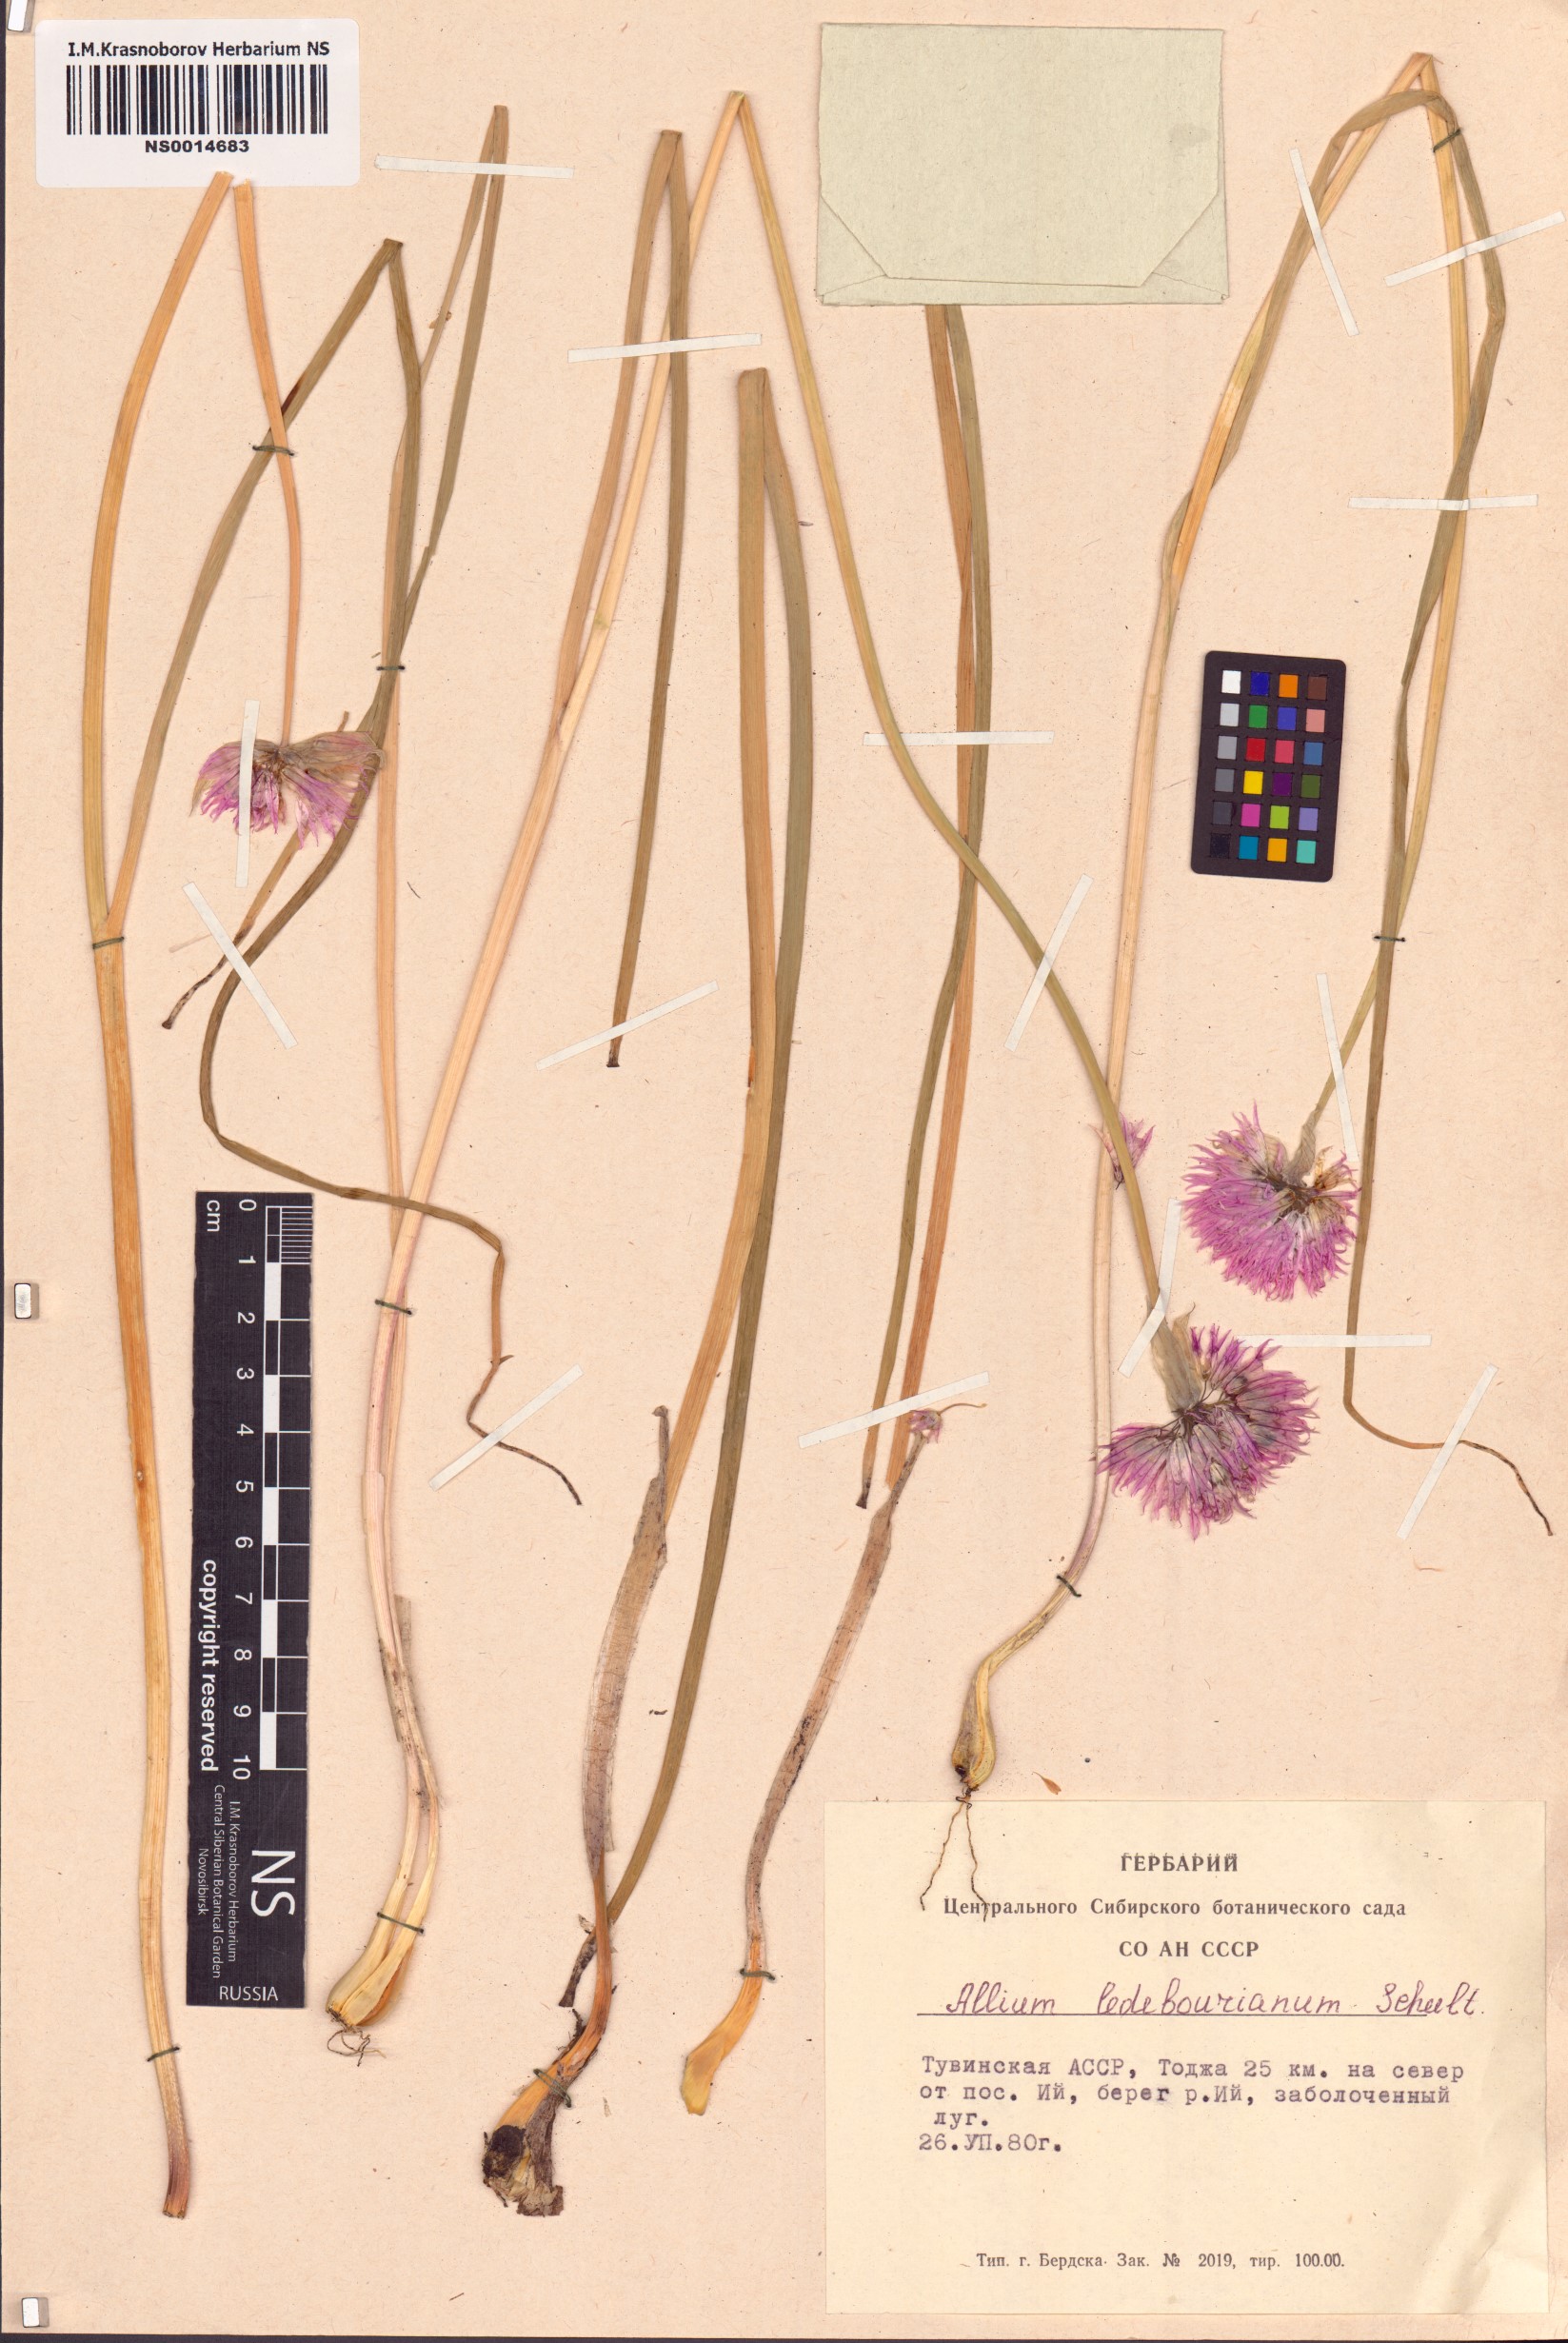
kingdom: Plantae
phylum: Tracheophyta
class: Liliopsida
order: Asparagales
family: Amaryllidaceae
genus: Allium
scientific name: Allium ledebourianum
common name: Ledebour chive
